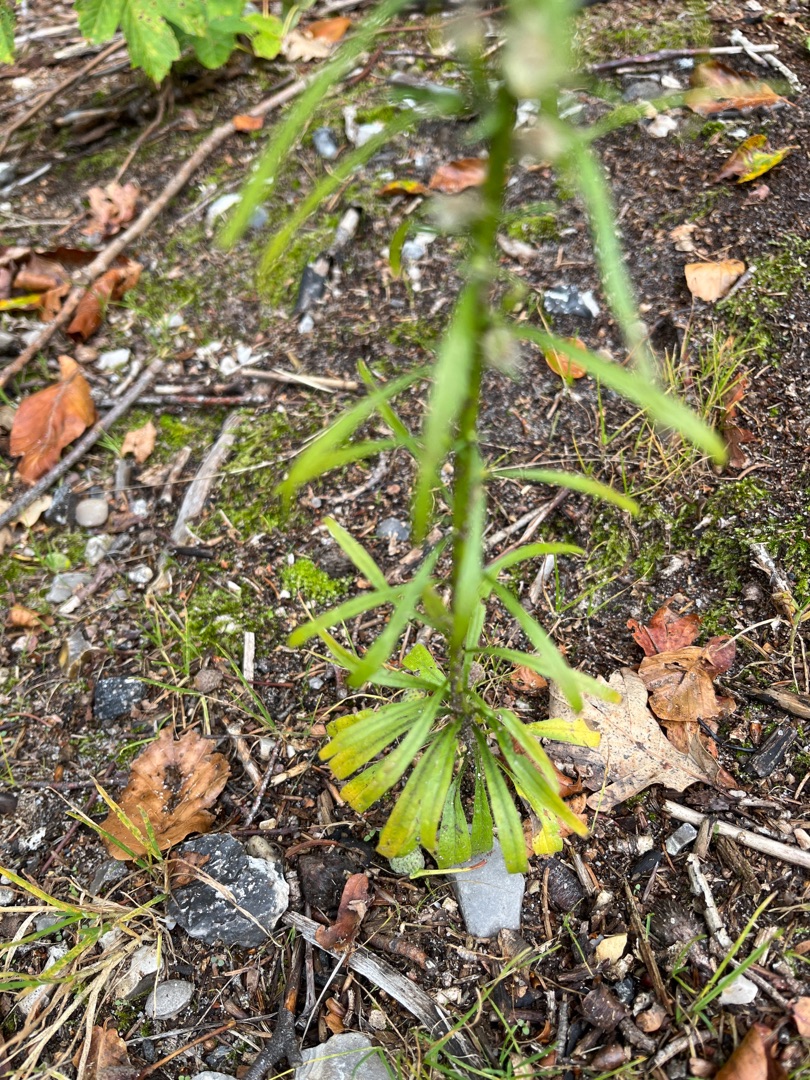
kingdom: Plantae
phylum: Tracheophyta
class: Magnoliopsida
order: Asterales
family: Asteraceae
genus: Erigeron
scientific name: Erigeron canadensis
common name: Kanadisk bakkestjerne
